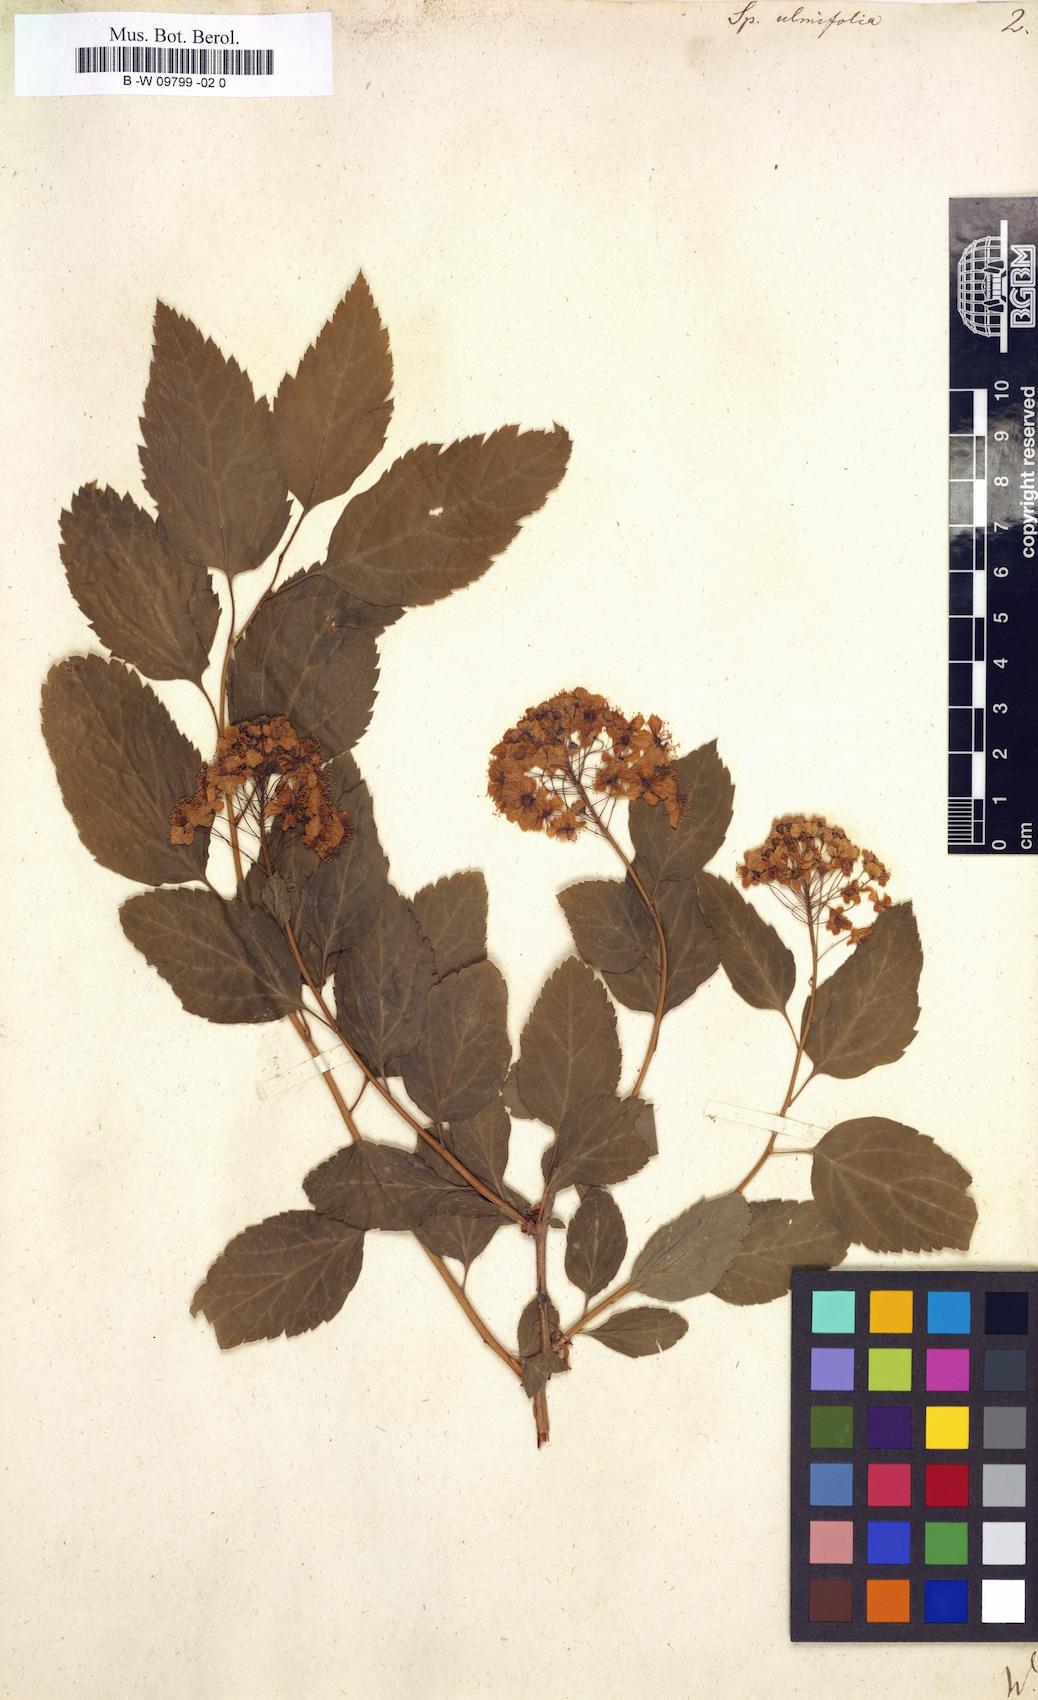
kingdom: Plantae
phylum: Tracheophyta
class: Magnoliopsida
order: Rosales
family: Rosaceae
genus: Spiraea
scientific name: Spiraea chamaedryfolia
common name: Elm-leaved spiraea
